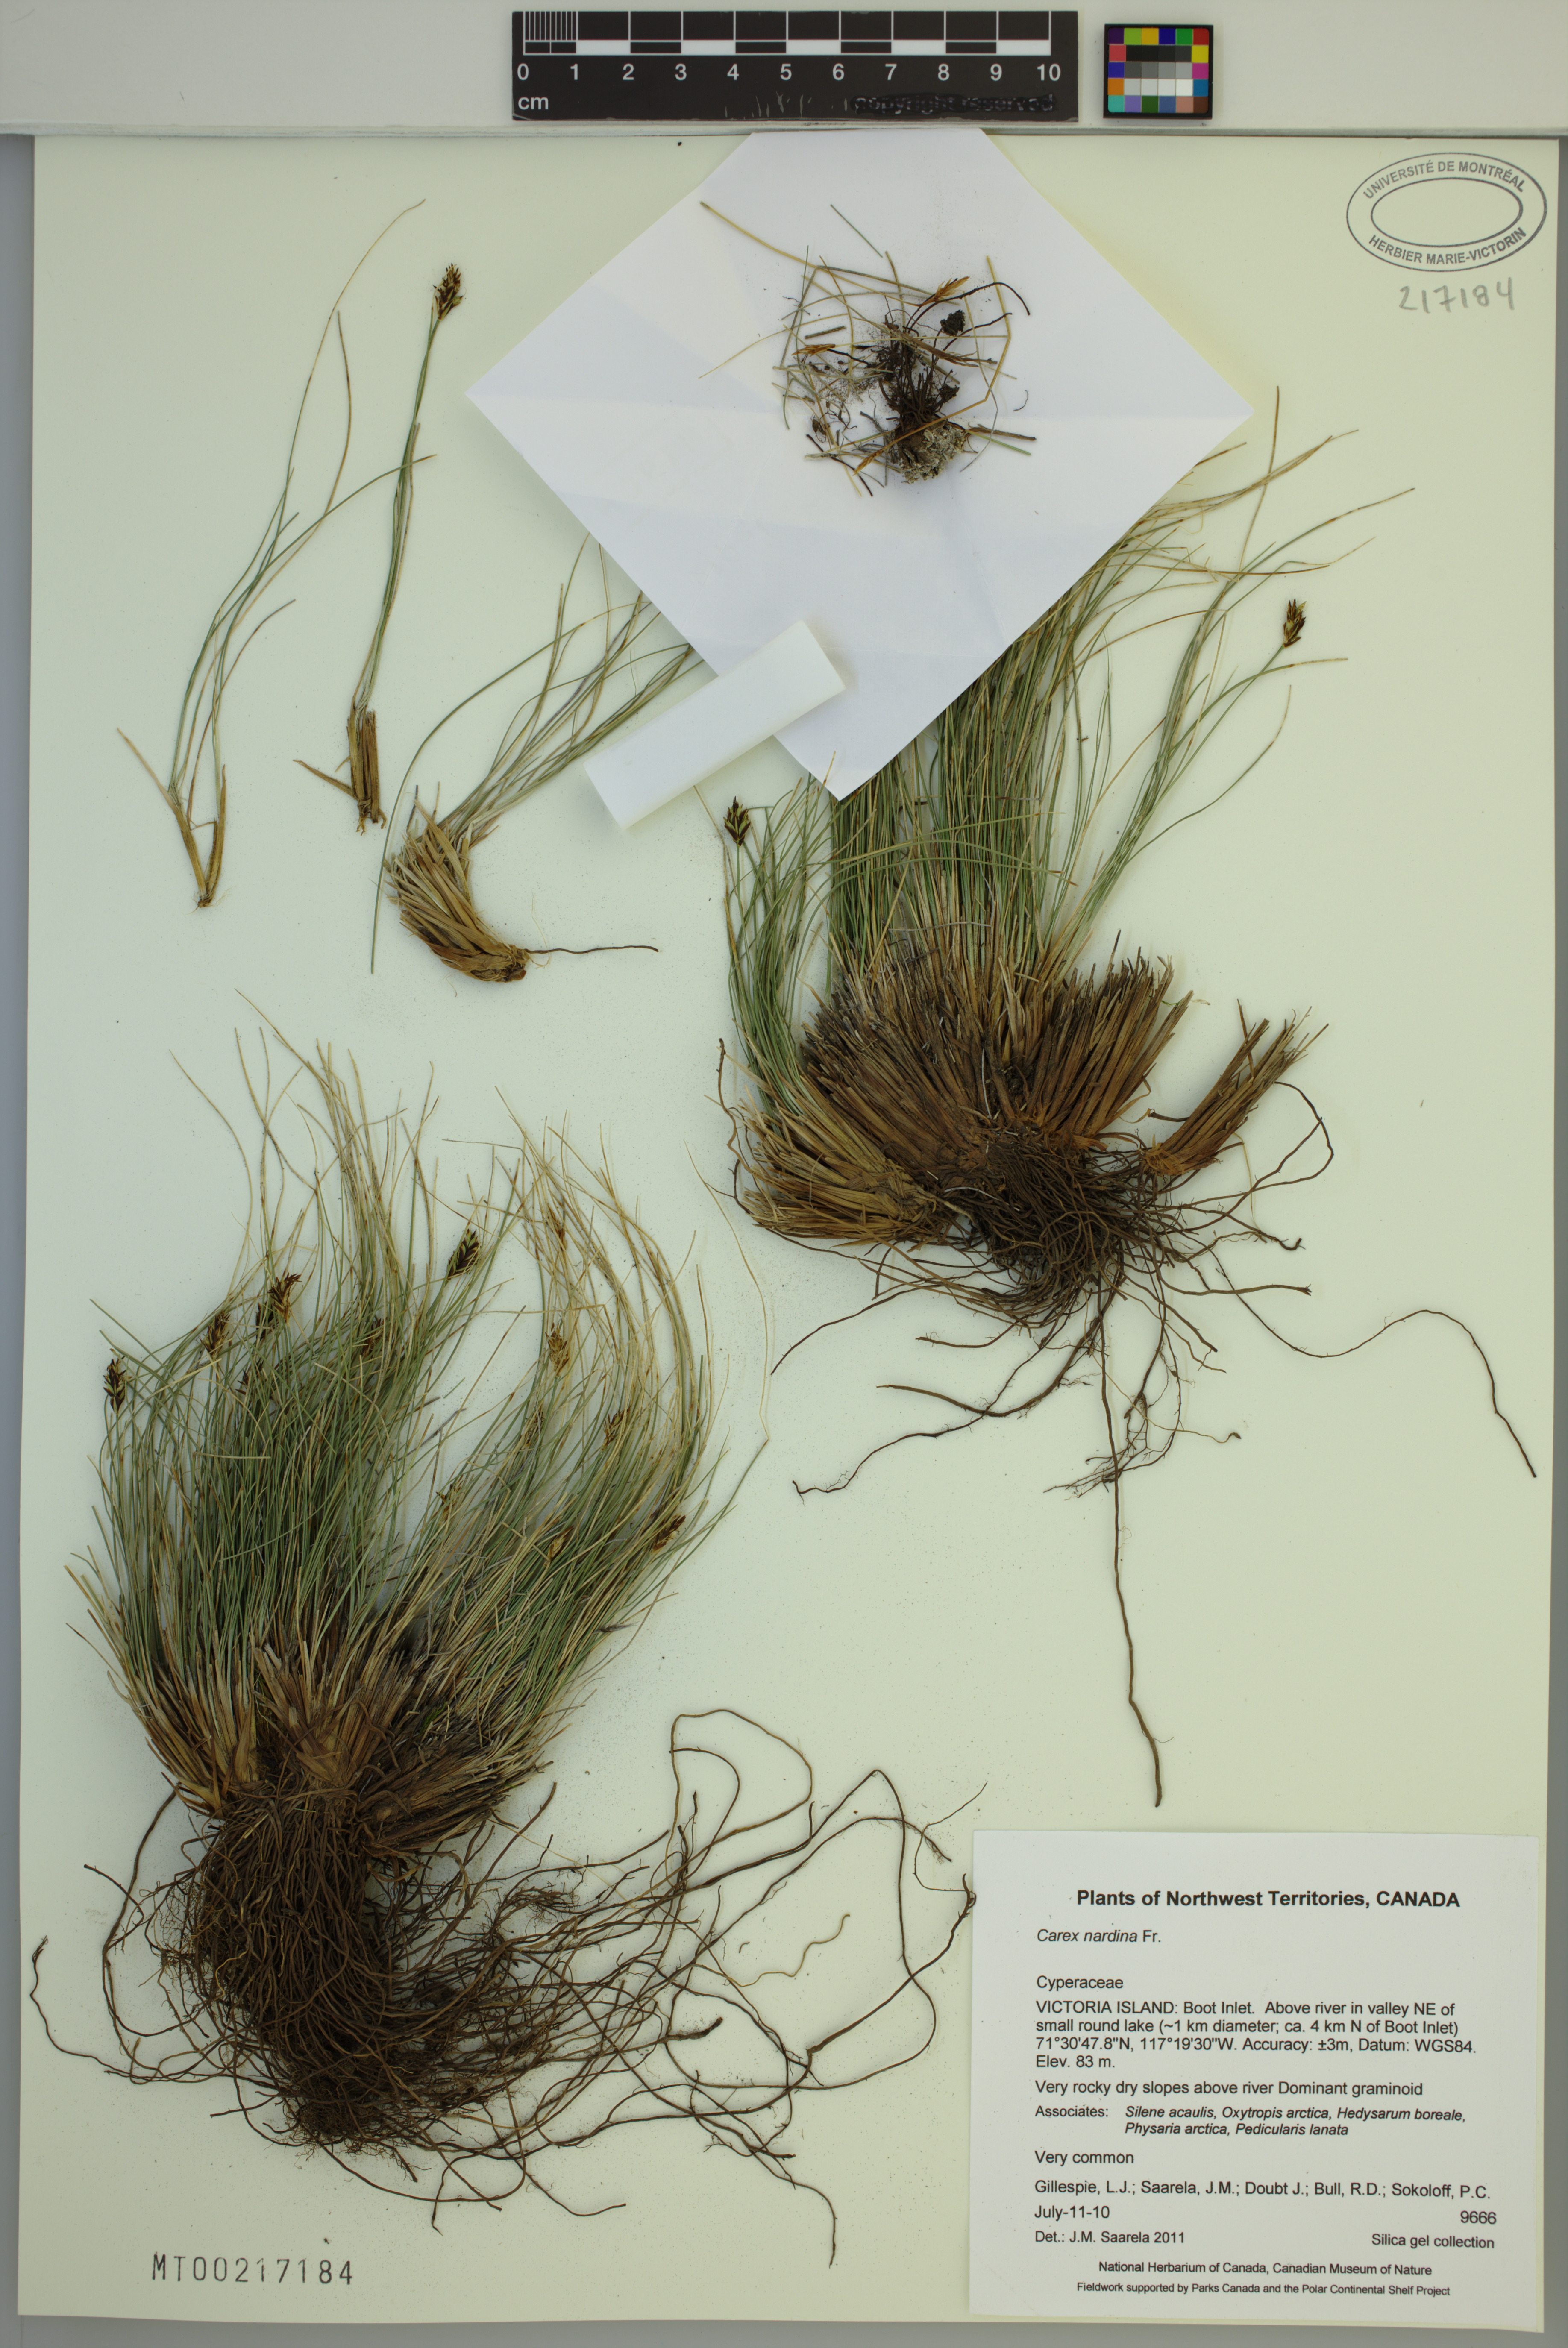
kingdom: Plantae
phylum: Tracheophyta
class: Liliopsida
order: Poales
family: Cyperaceae
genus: Carex
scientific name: Carex nardina
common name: Nard sedge
